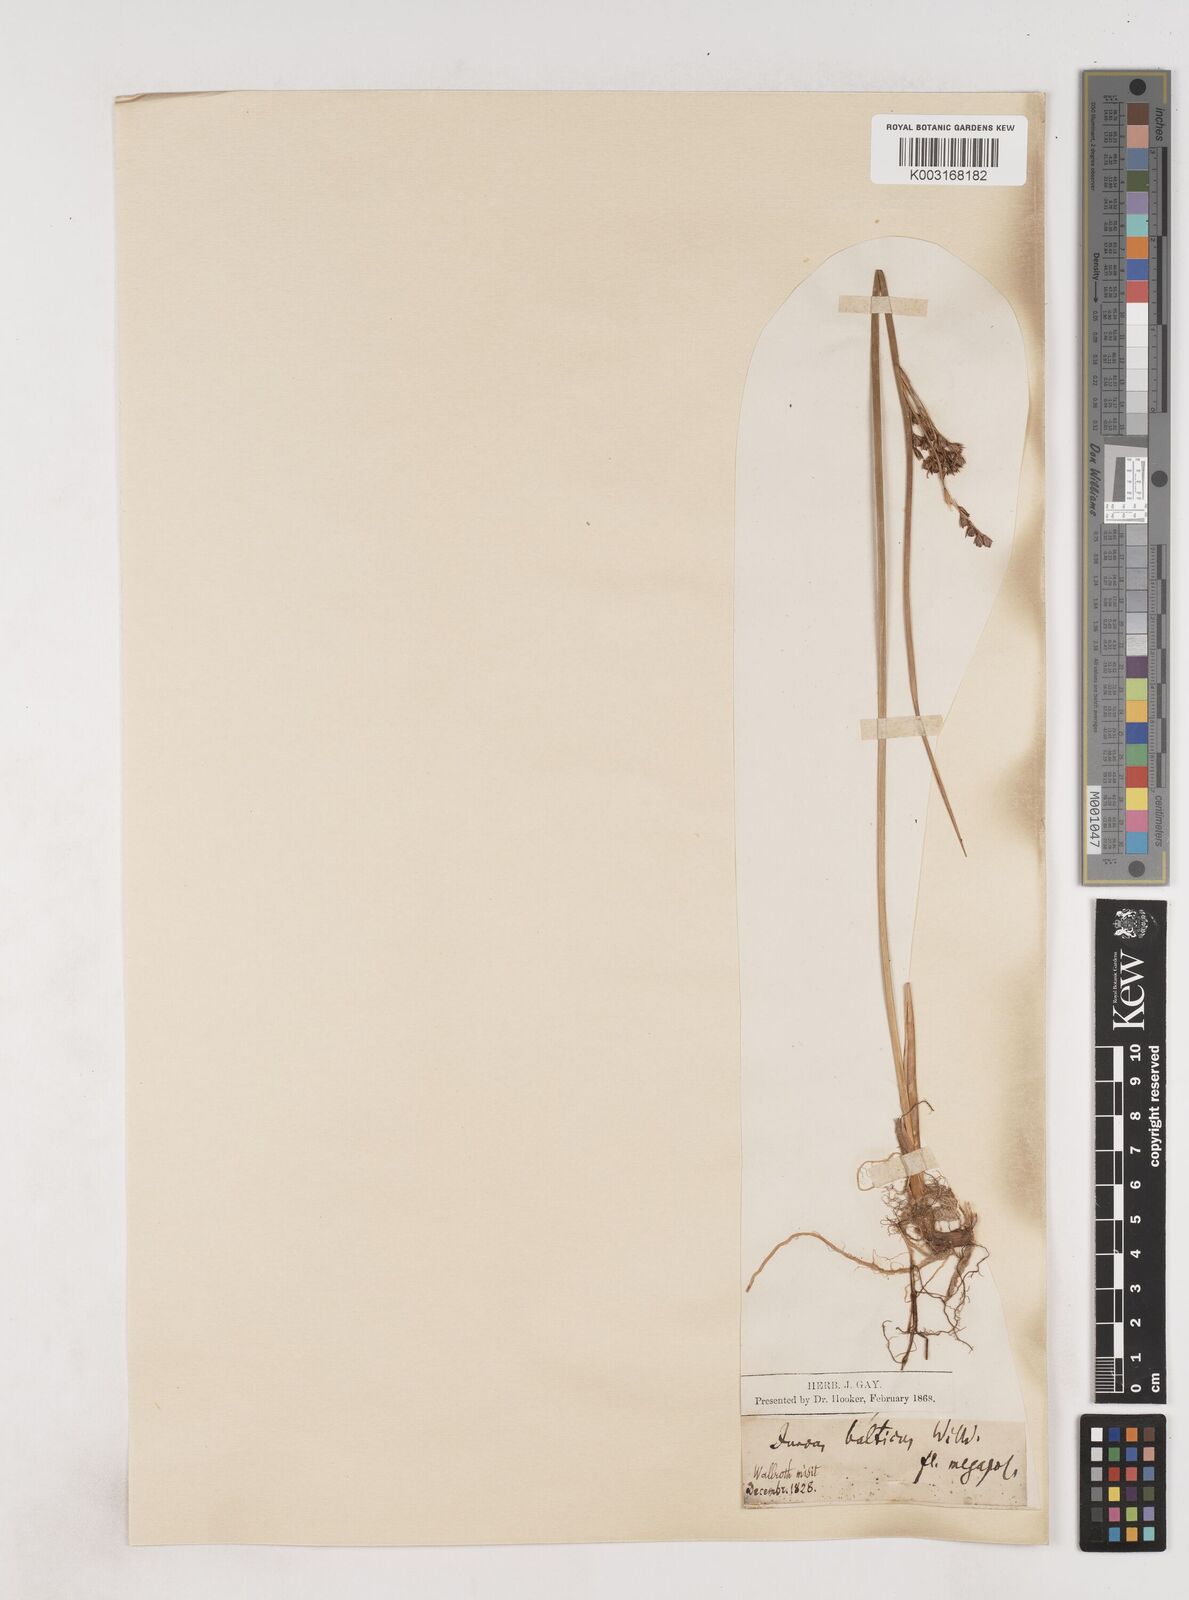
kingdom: Plantae
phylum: Tracheophyta
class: Liliopsida
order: Poales
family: Juncaceae
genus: Juncus
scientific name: Juncus balticus
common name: Baltic rush
